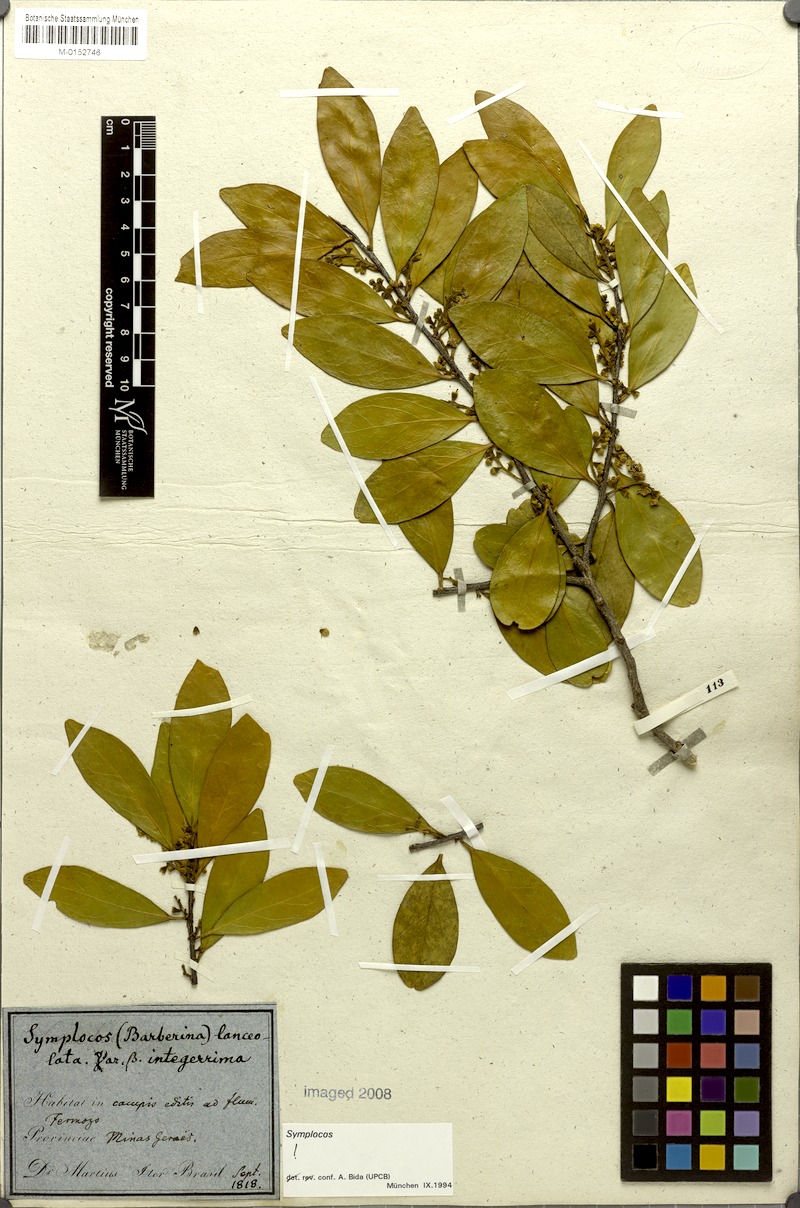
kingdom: Plantae
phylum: Tracheophyta
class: Magnoliopsida
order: Ericales
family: Symplocaceae
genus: Symplocos
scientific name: Symplocos oblongifolia
